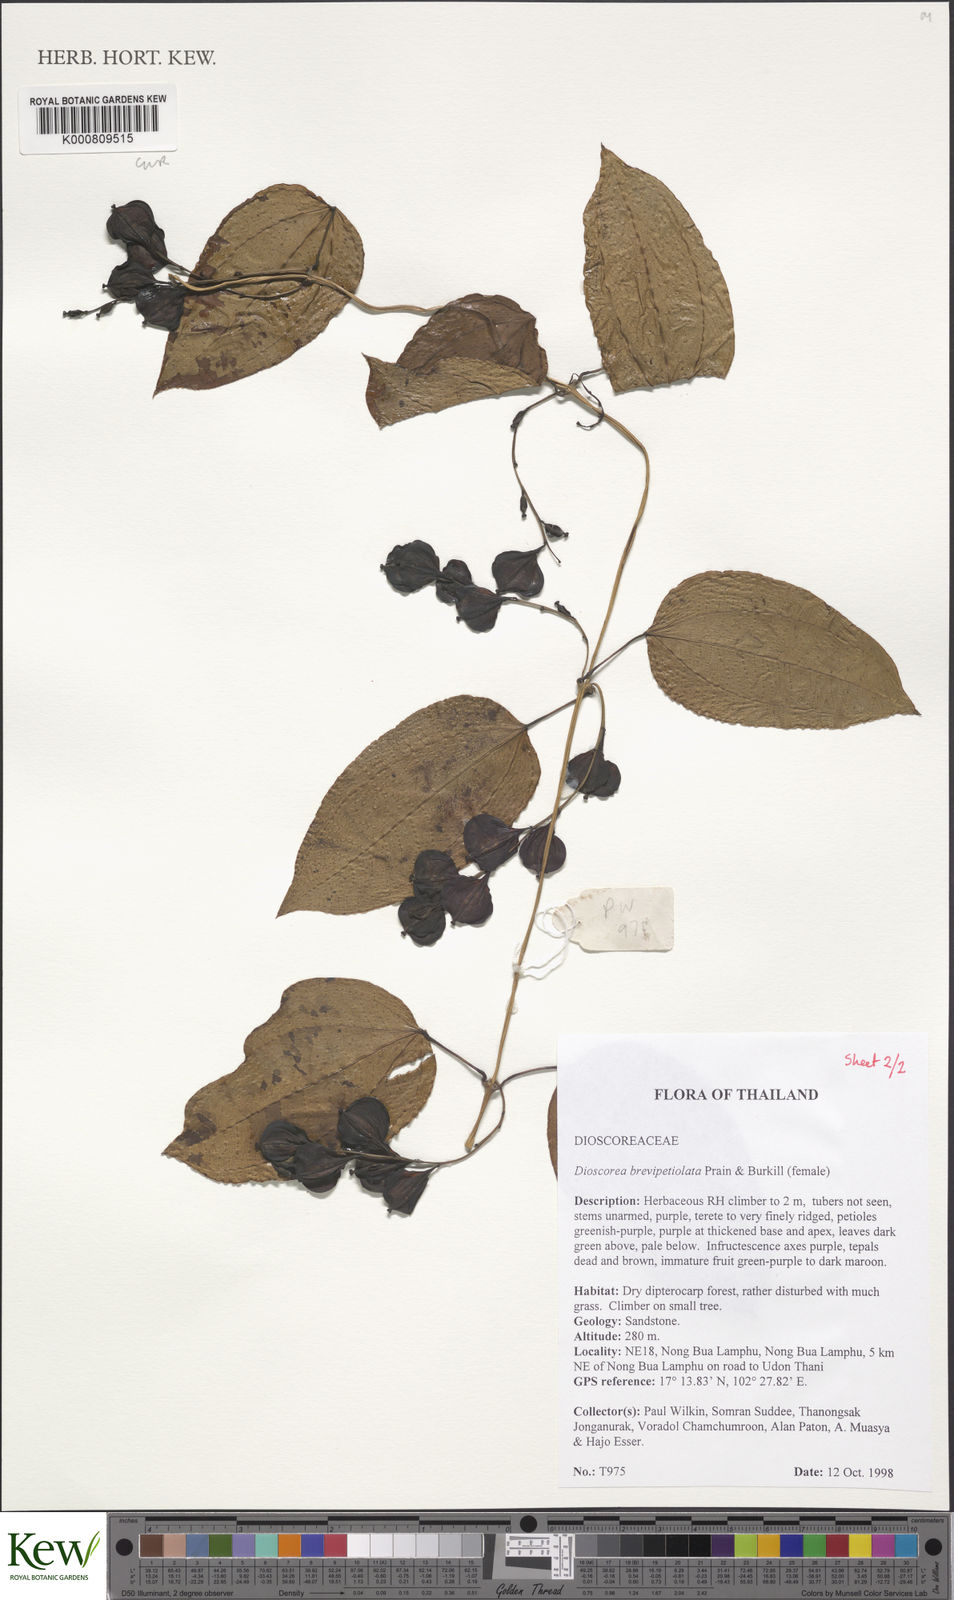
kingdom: Plantae
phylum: Tracheophyta
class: Liliopsida
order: Dioscoreales
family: Dioscoreaceae
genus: Dioscorea
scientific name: Dioscorea brevipetiolata
